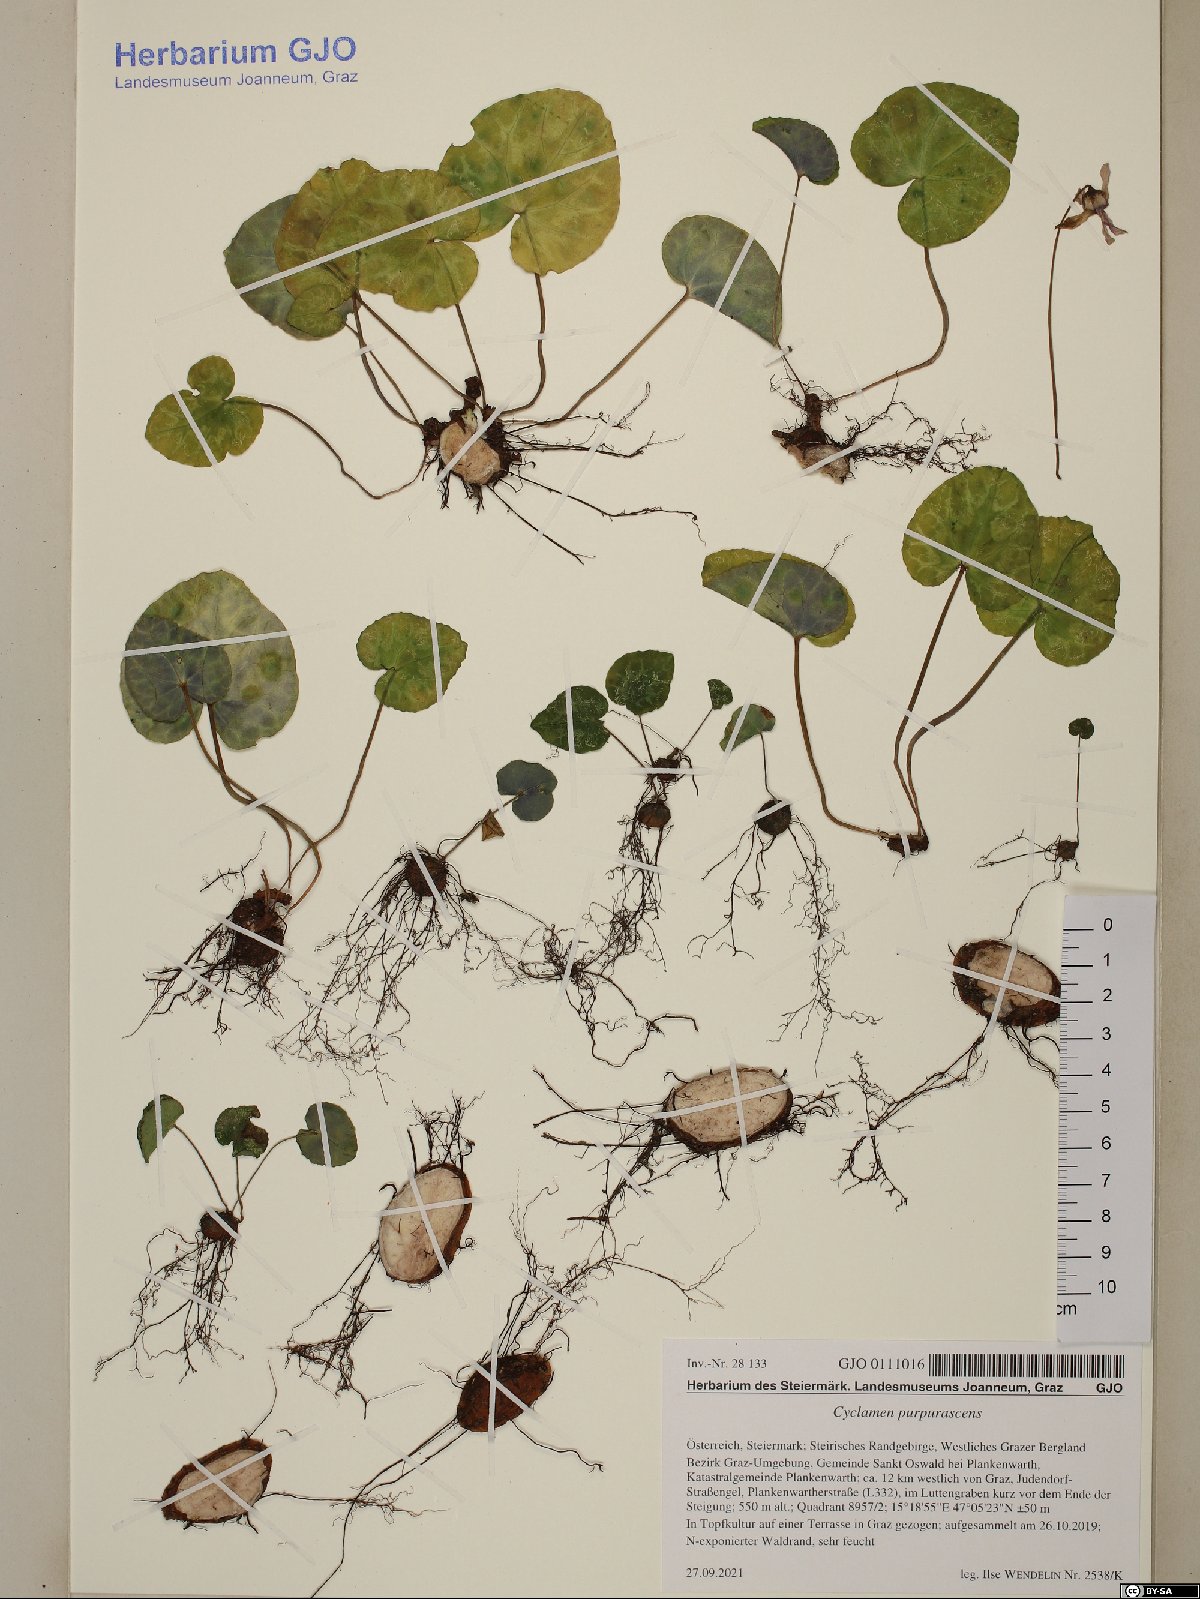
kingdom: Plantae
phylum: Tracheophyta
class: Magnoliopsida
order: Ericales
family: Primulaceae
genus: Cyclamen
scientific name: Cyclamen purpurascens
